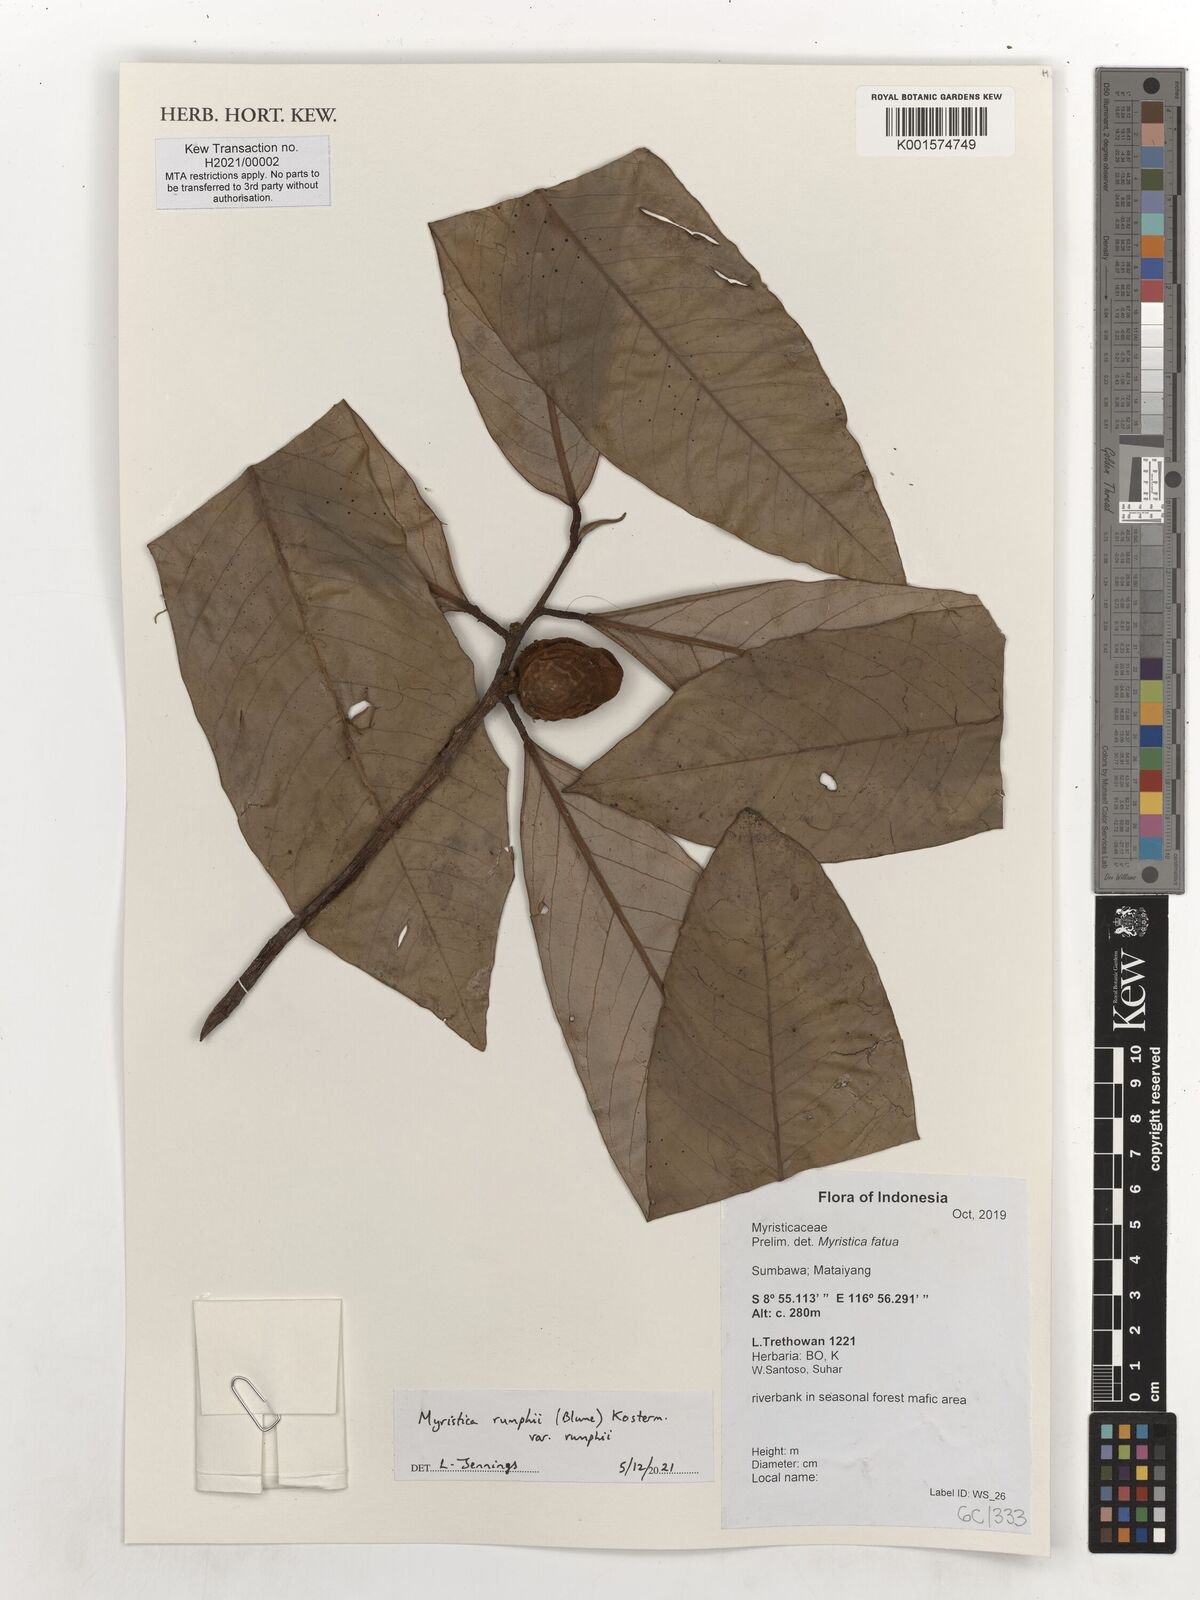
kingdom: Plantae
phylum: Tracheophyta
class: Magnoliopsida
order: Magnoliales
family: Myristicaceae
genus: Myristica
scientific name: Myristica rumphii
